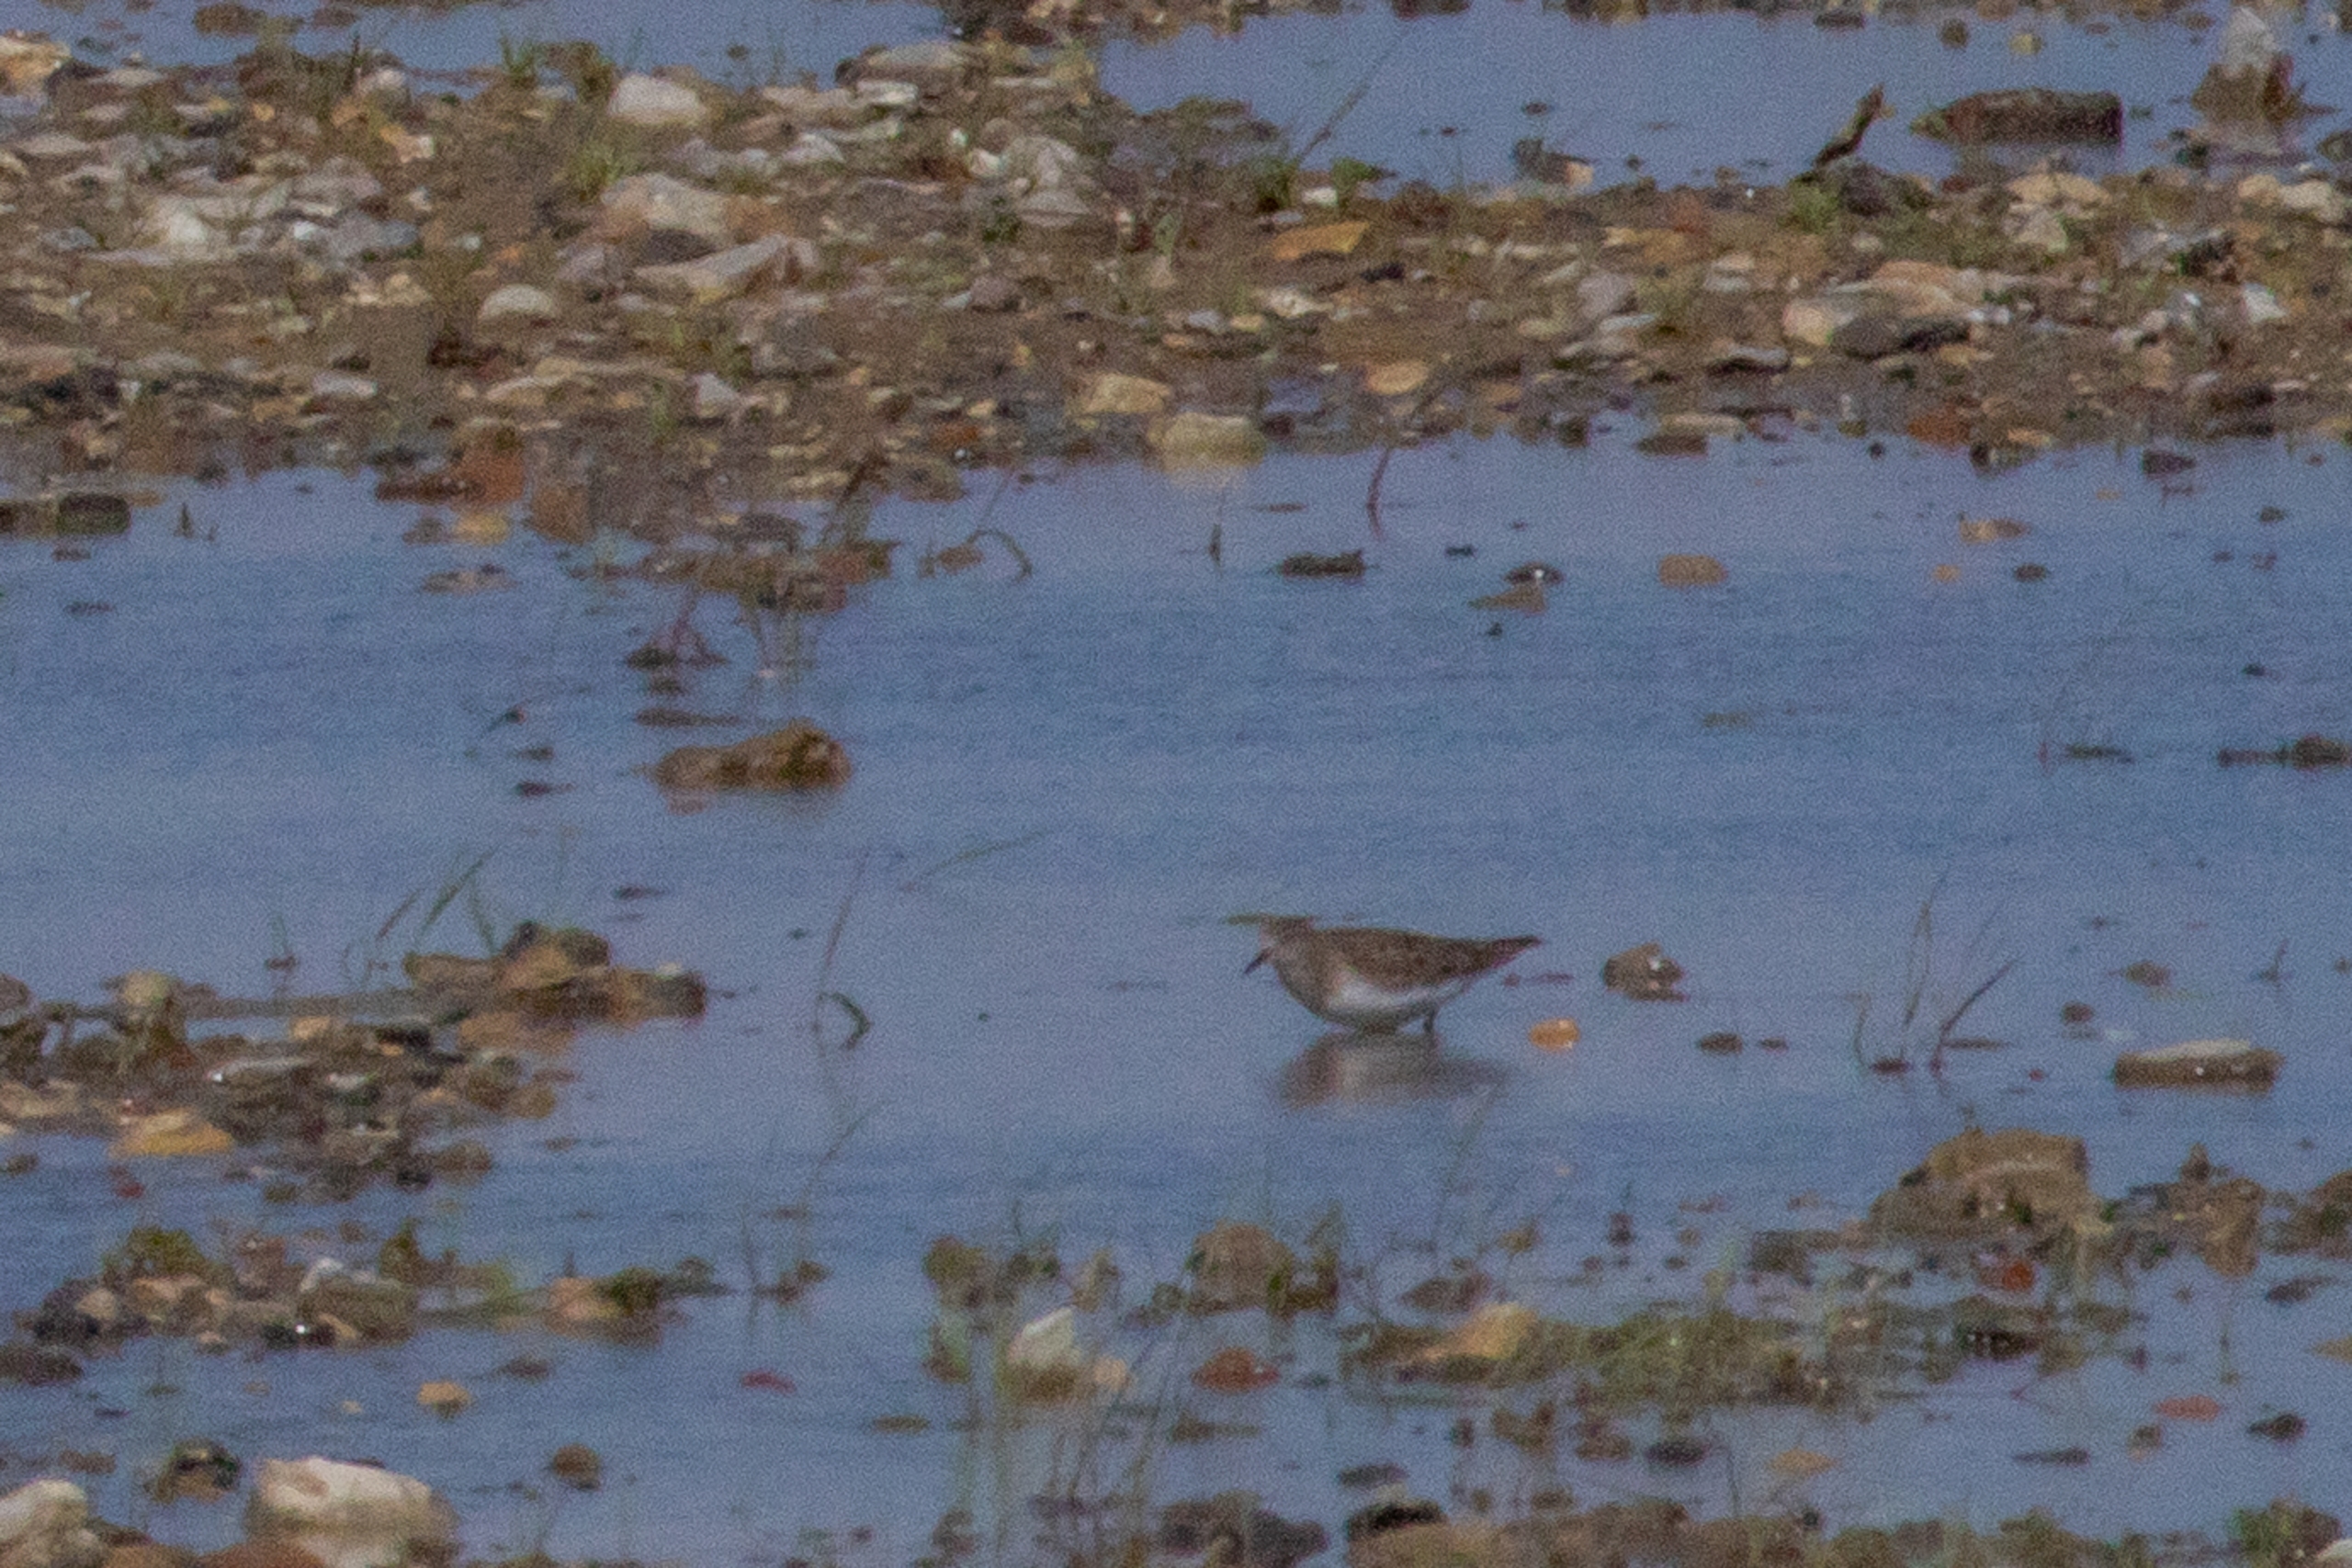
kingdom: Animalia
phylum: Chordata
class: Aves
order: Charadriiformes
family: Scolopacidae
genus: Calidris
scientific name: Calidris temminckii
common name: Temmincksryle
